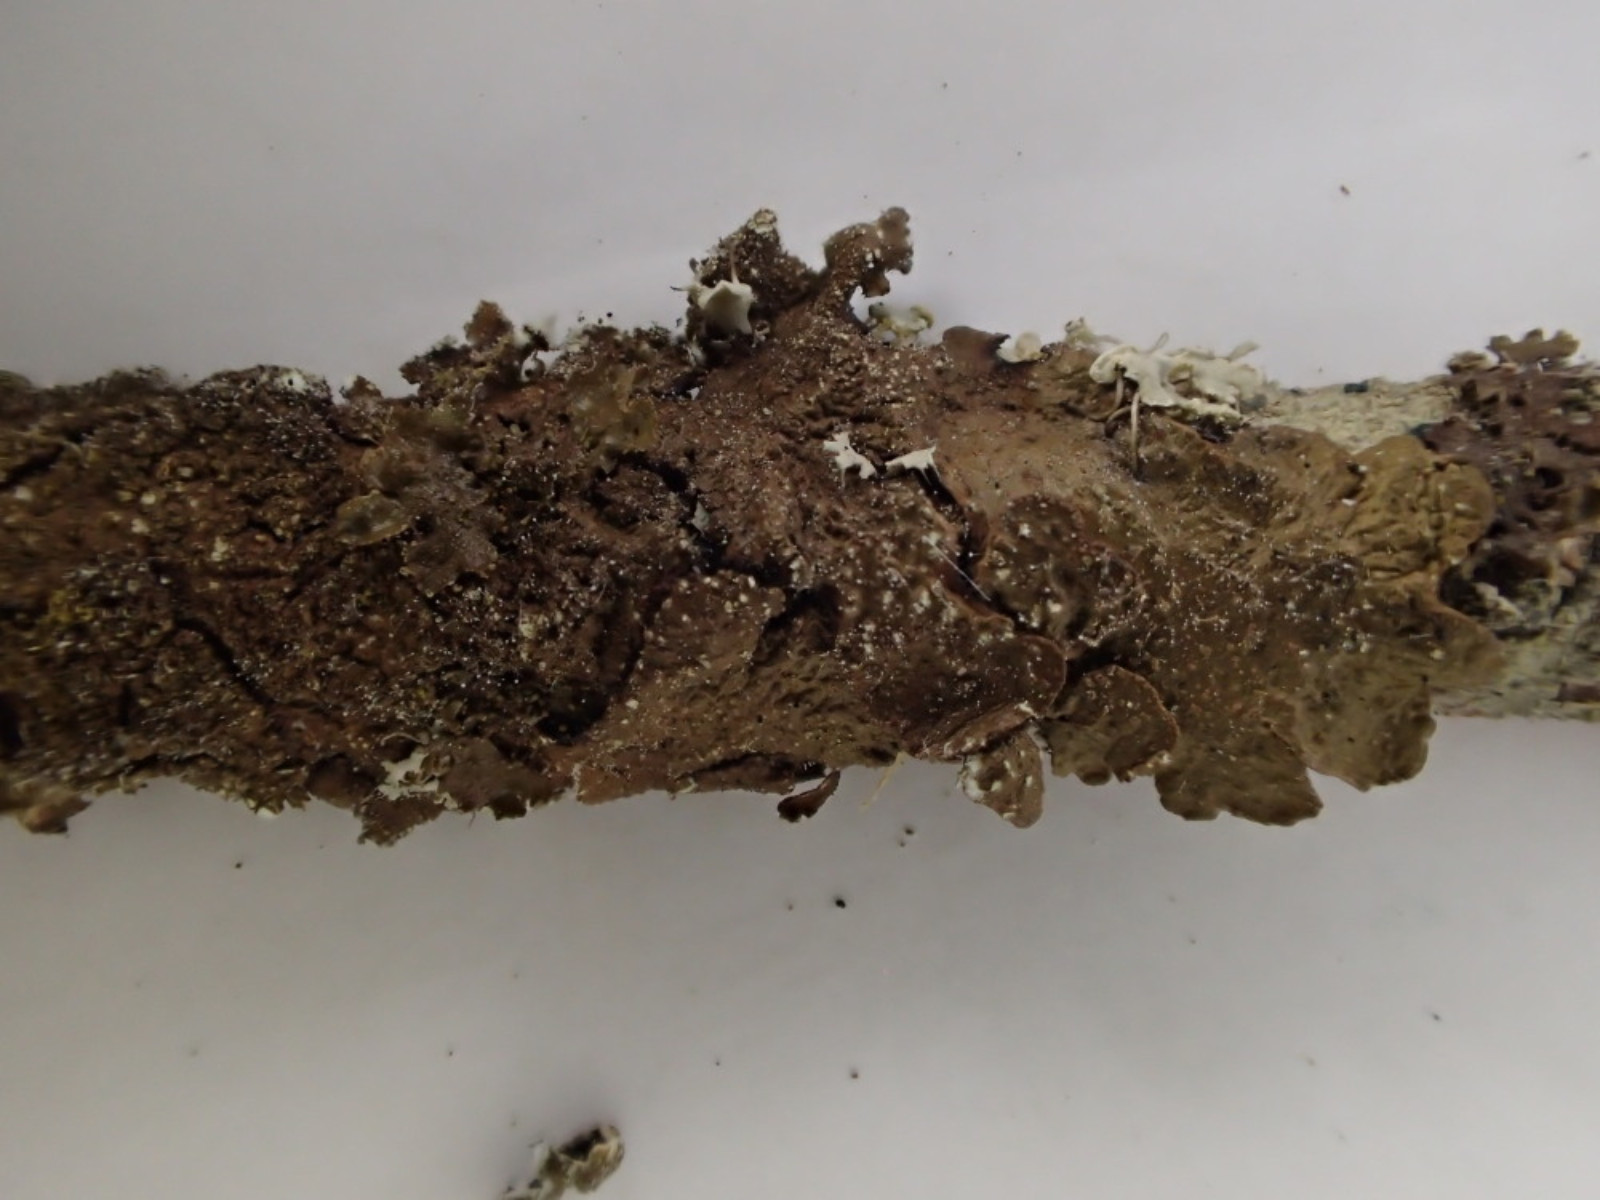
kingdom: Fungi
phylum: Ascomycota
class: Lecanoromycetes
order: Lecanorales
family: Parmeliaceae
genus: Melanelixia
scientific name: Melanelixia subaurifera
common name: guldpudret skållav
